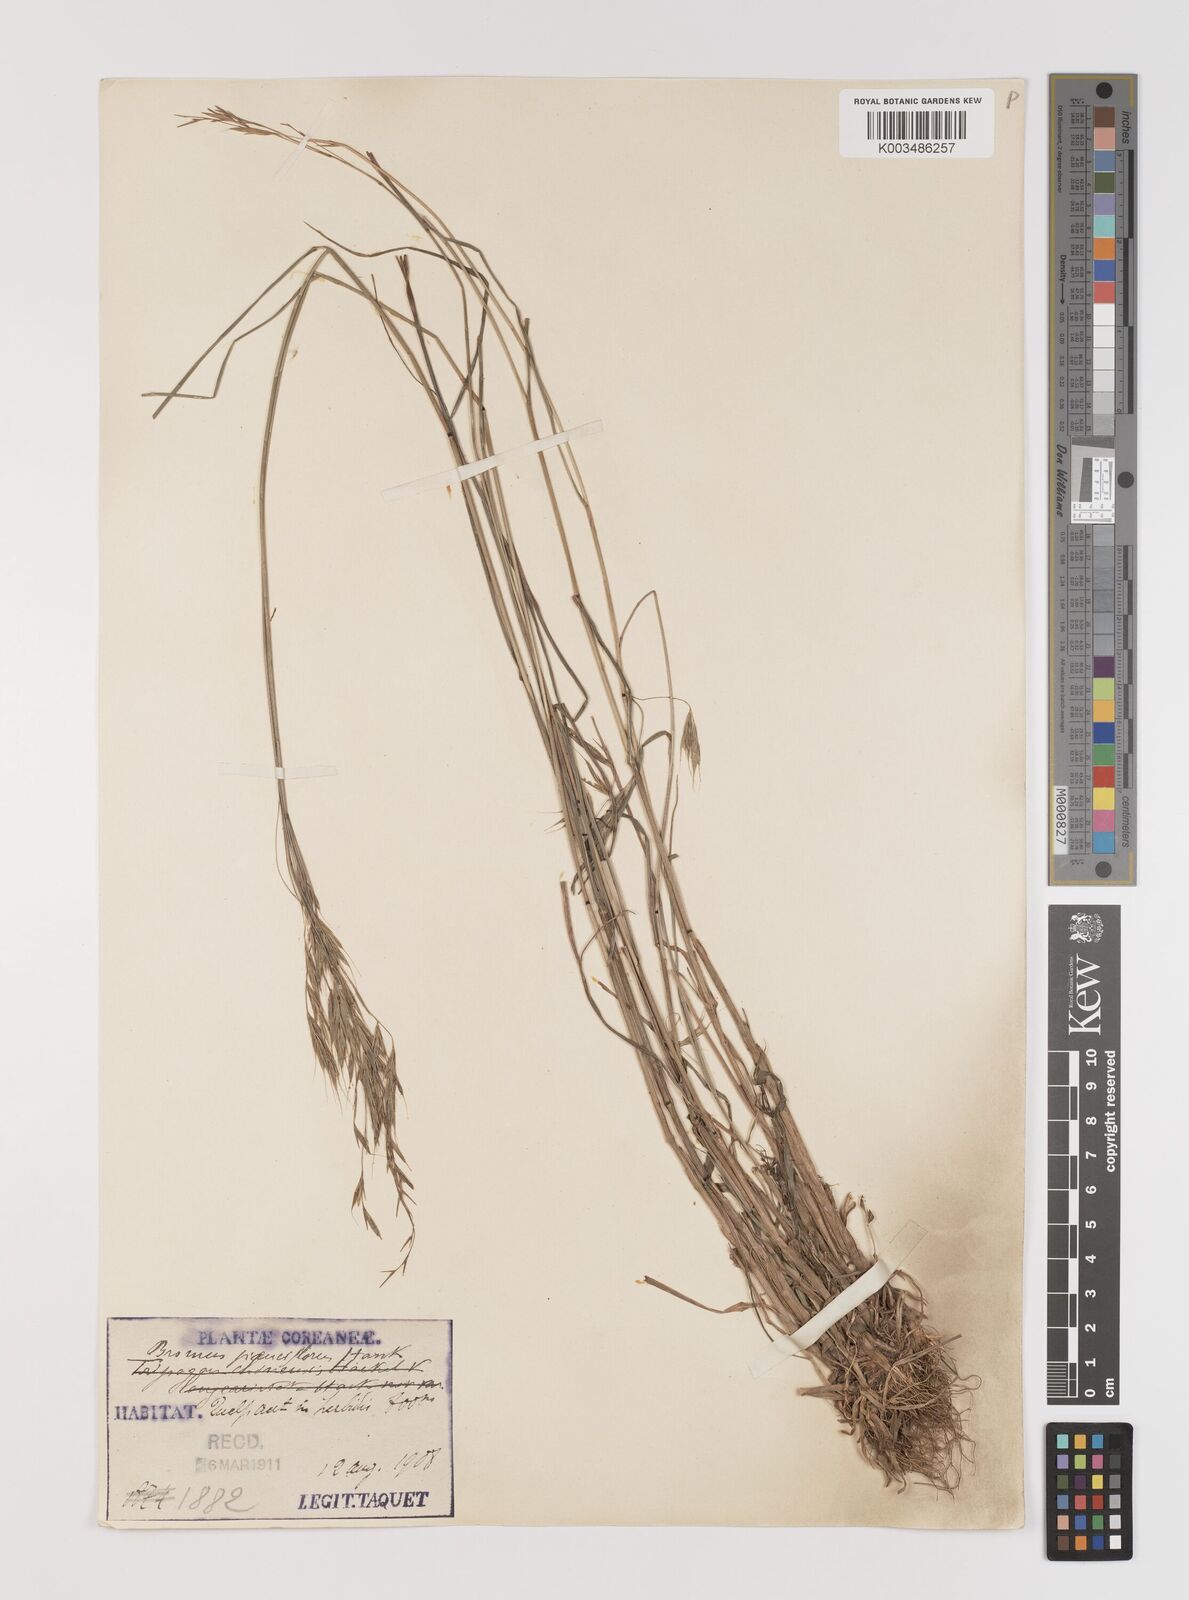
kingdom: Plantae
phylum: Tracheophyta
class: Liliopsida
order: Poales
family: Poaceae
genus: Bromus
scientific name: Bromus remotiflorus
